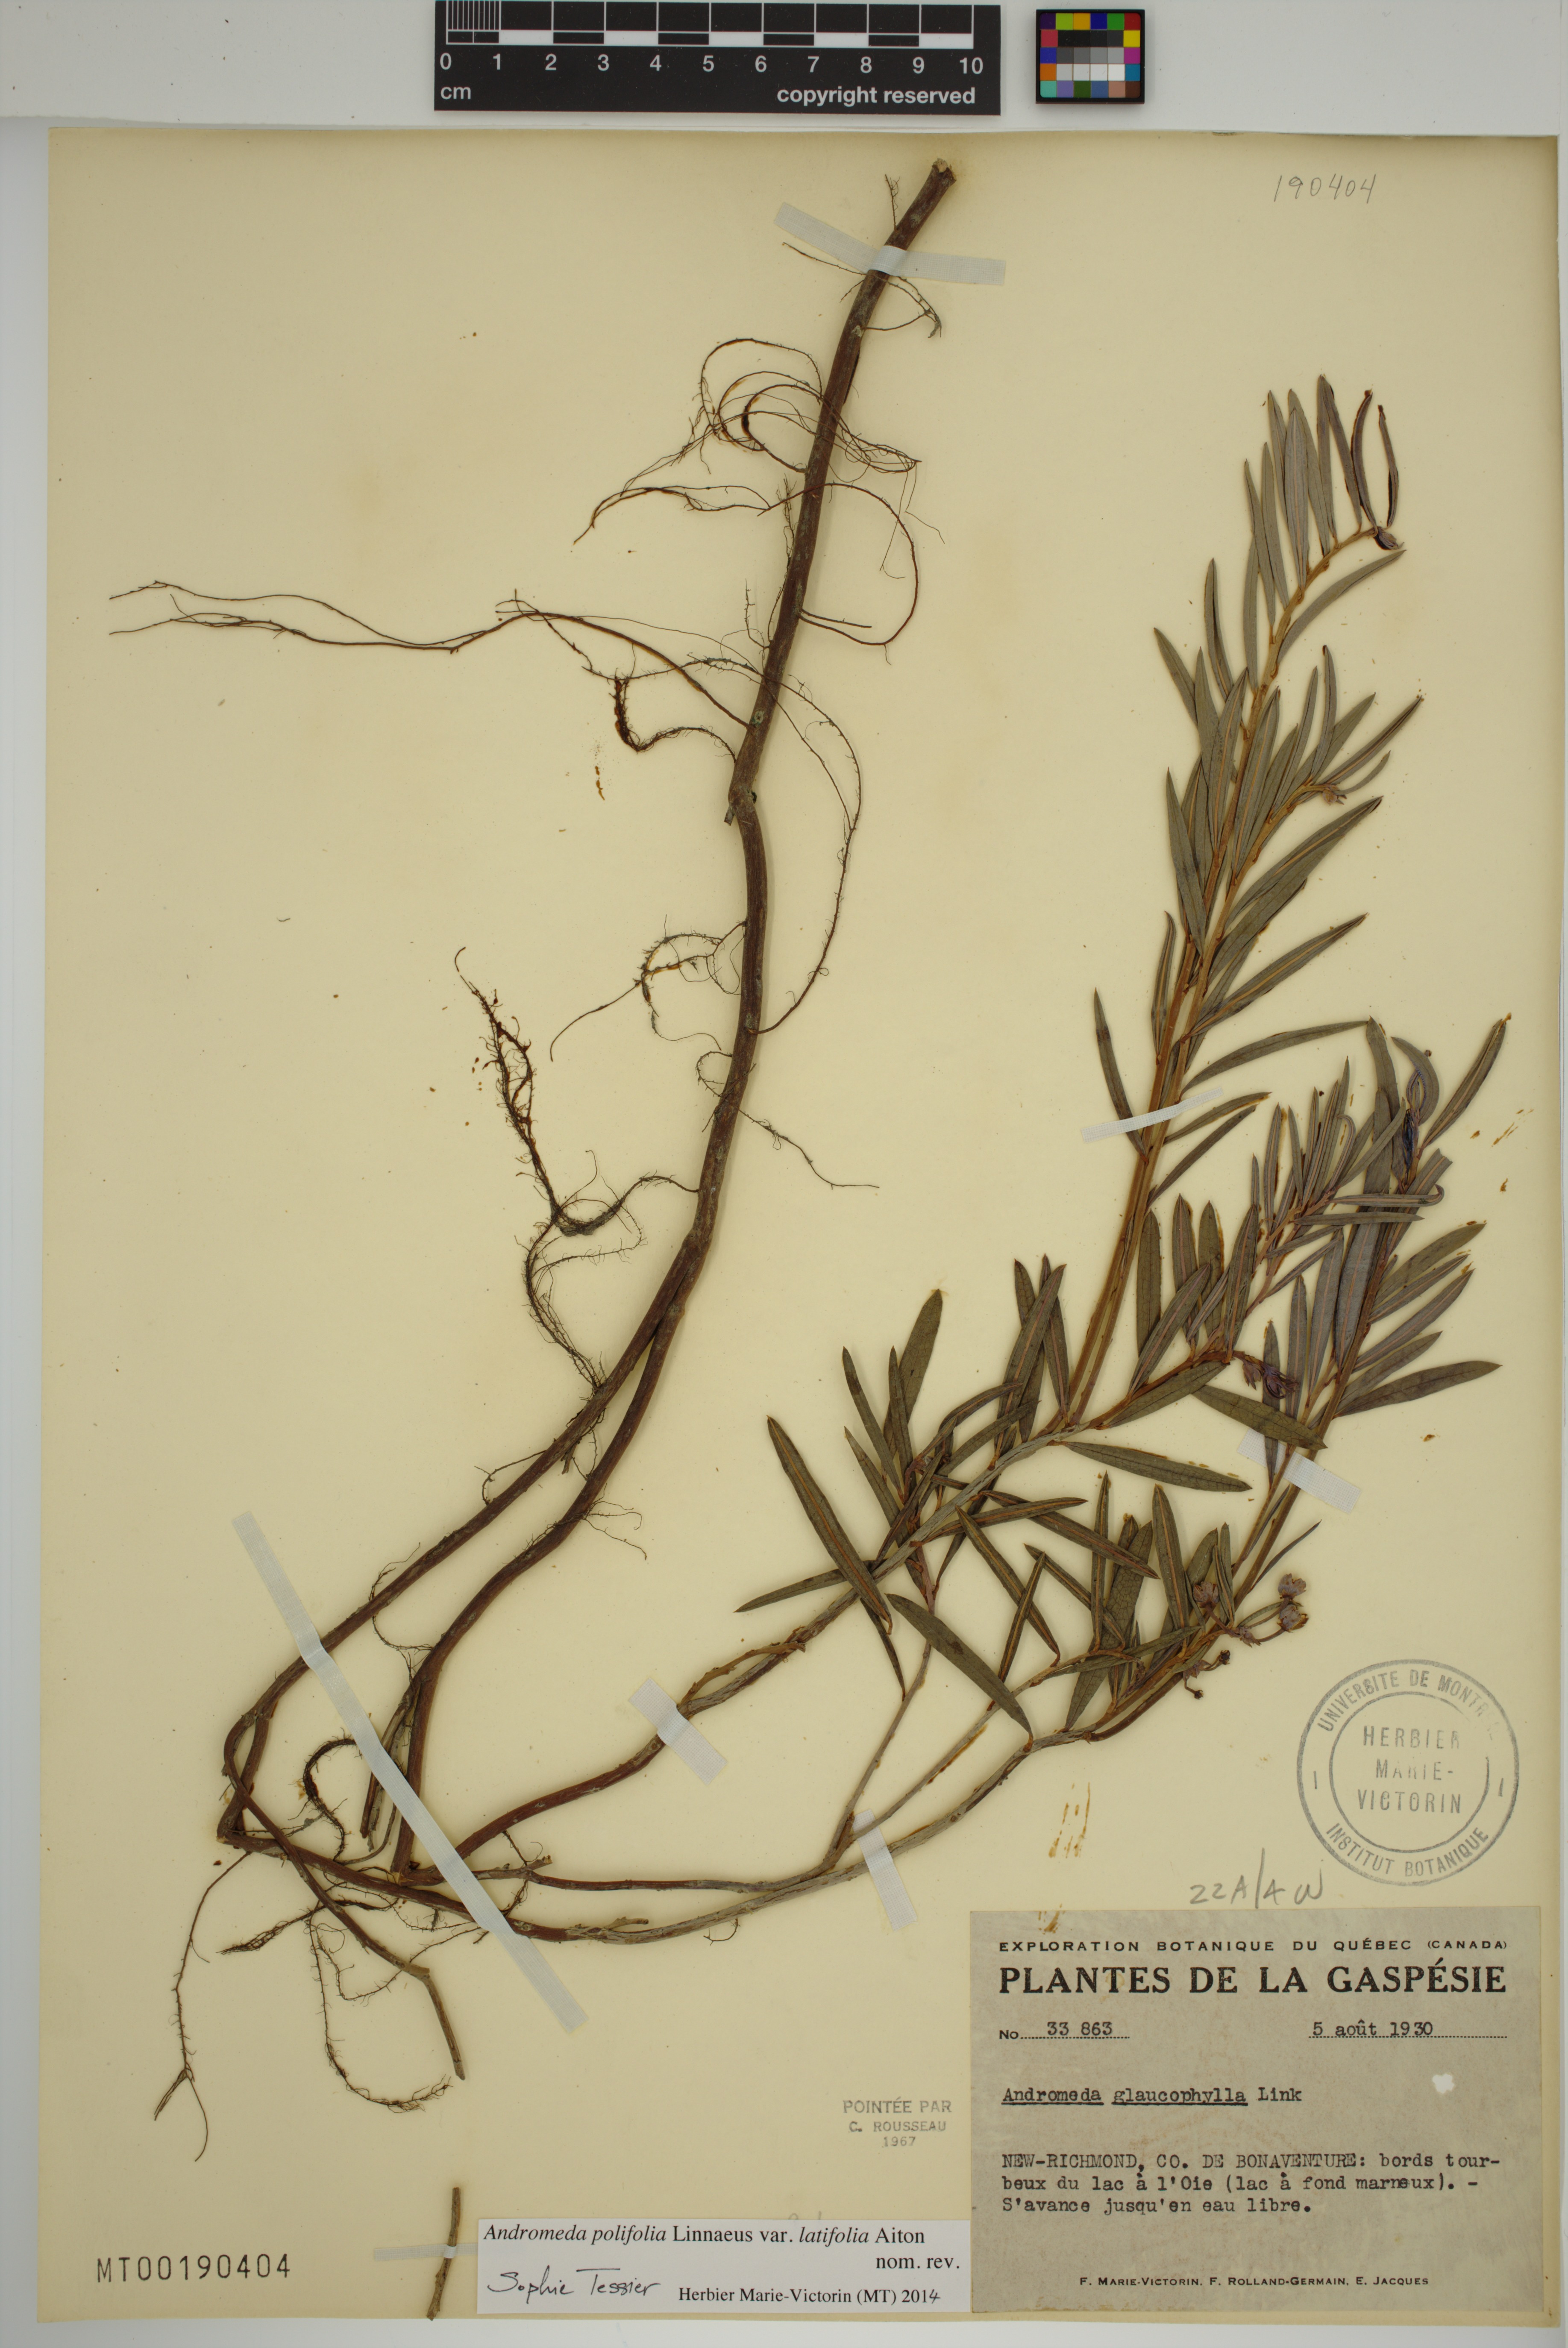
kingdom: Plantae
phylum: Tracheophyta
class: Magnoliopsida
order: Ericales
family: Ericaceae
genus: Andromeda
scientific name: Andromeda polifolia
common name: Bog-rosemary
